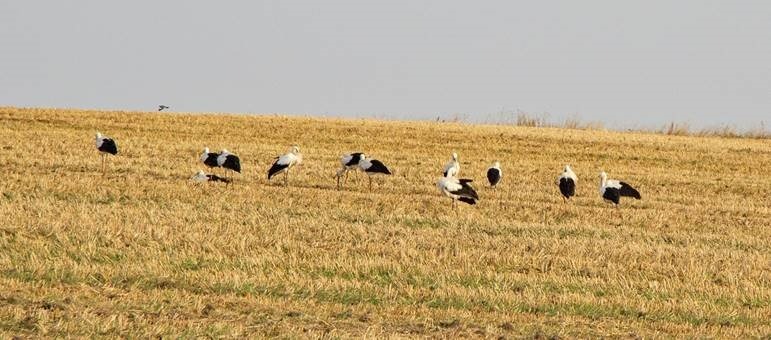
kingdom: Animalia
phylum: Chordata
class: Aves
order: Ciconiiformes
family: Ciconiidae
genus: Ciconia
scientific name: Ciconia ciconia
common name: Hvid stork
